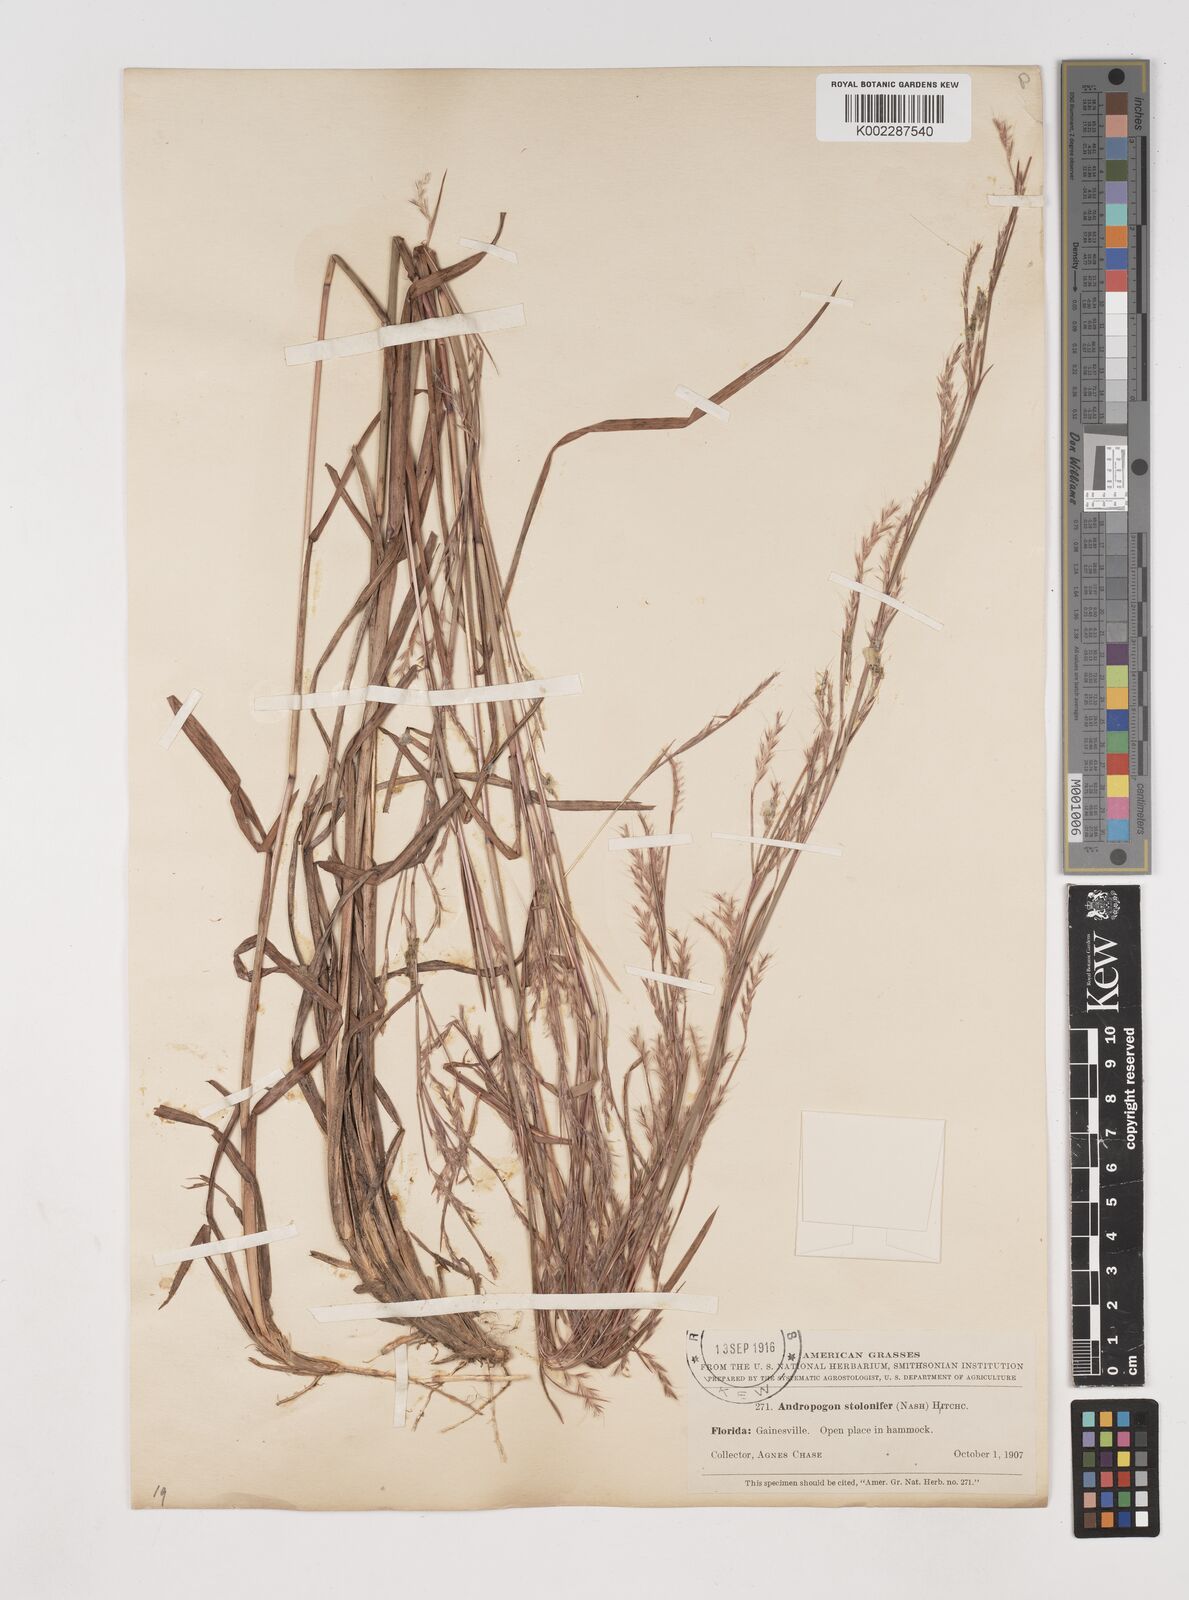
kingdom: Plantae
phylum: Tracheophyta
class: Liliopsida
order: Poales
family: Poaceae
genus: Andropogon
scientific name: Andropogon stolonifer
